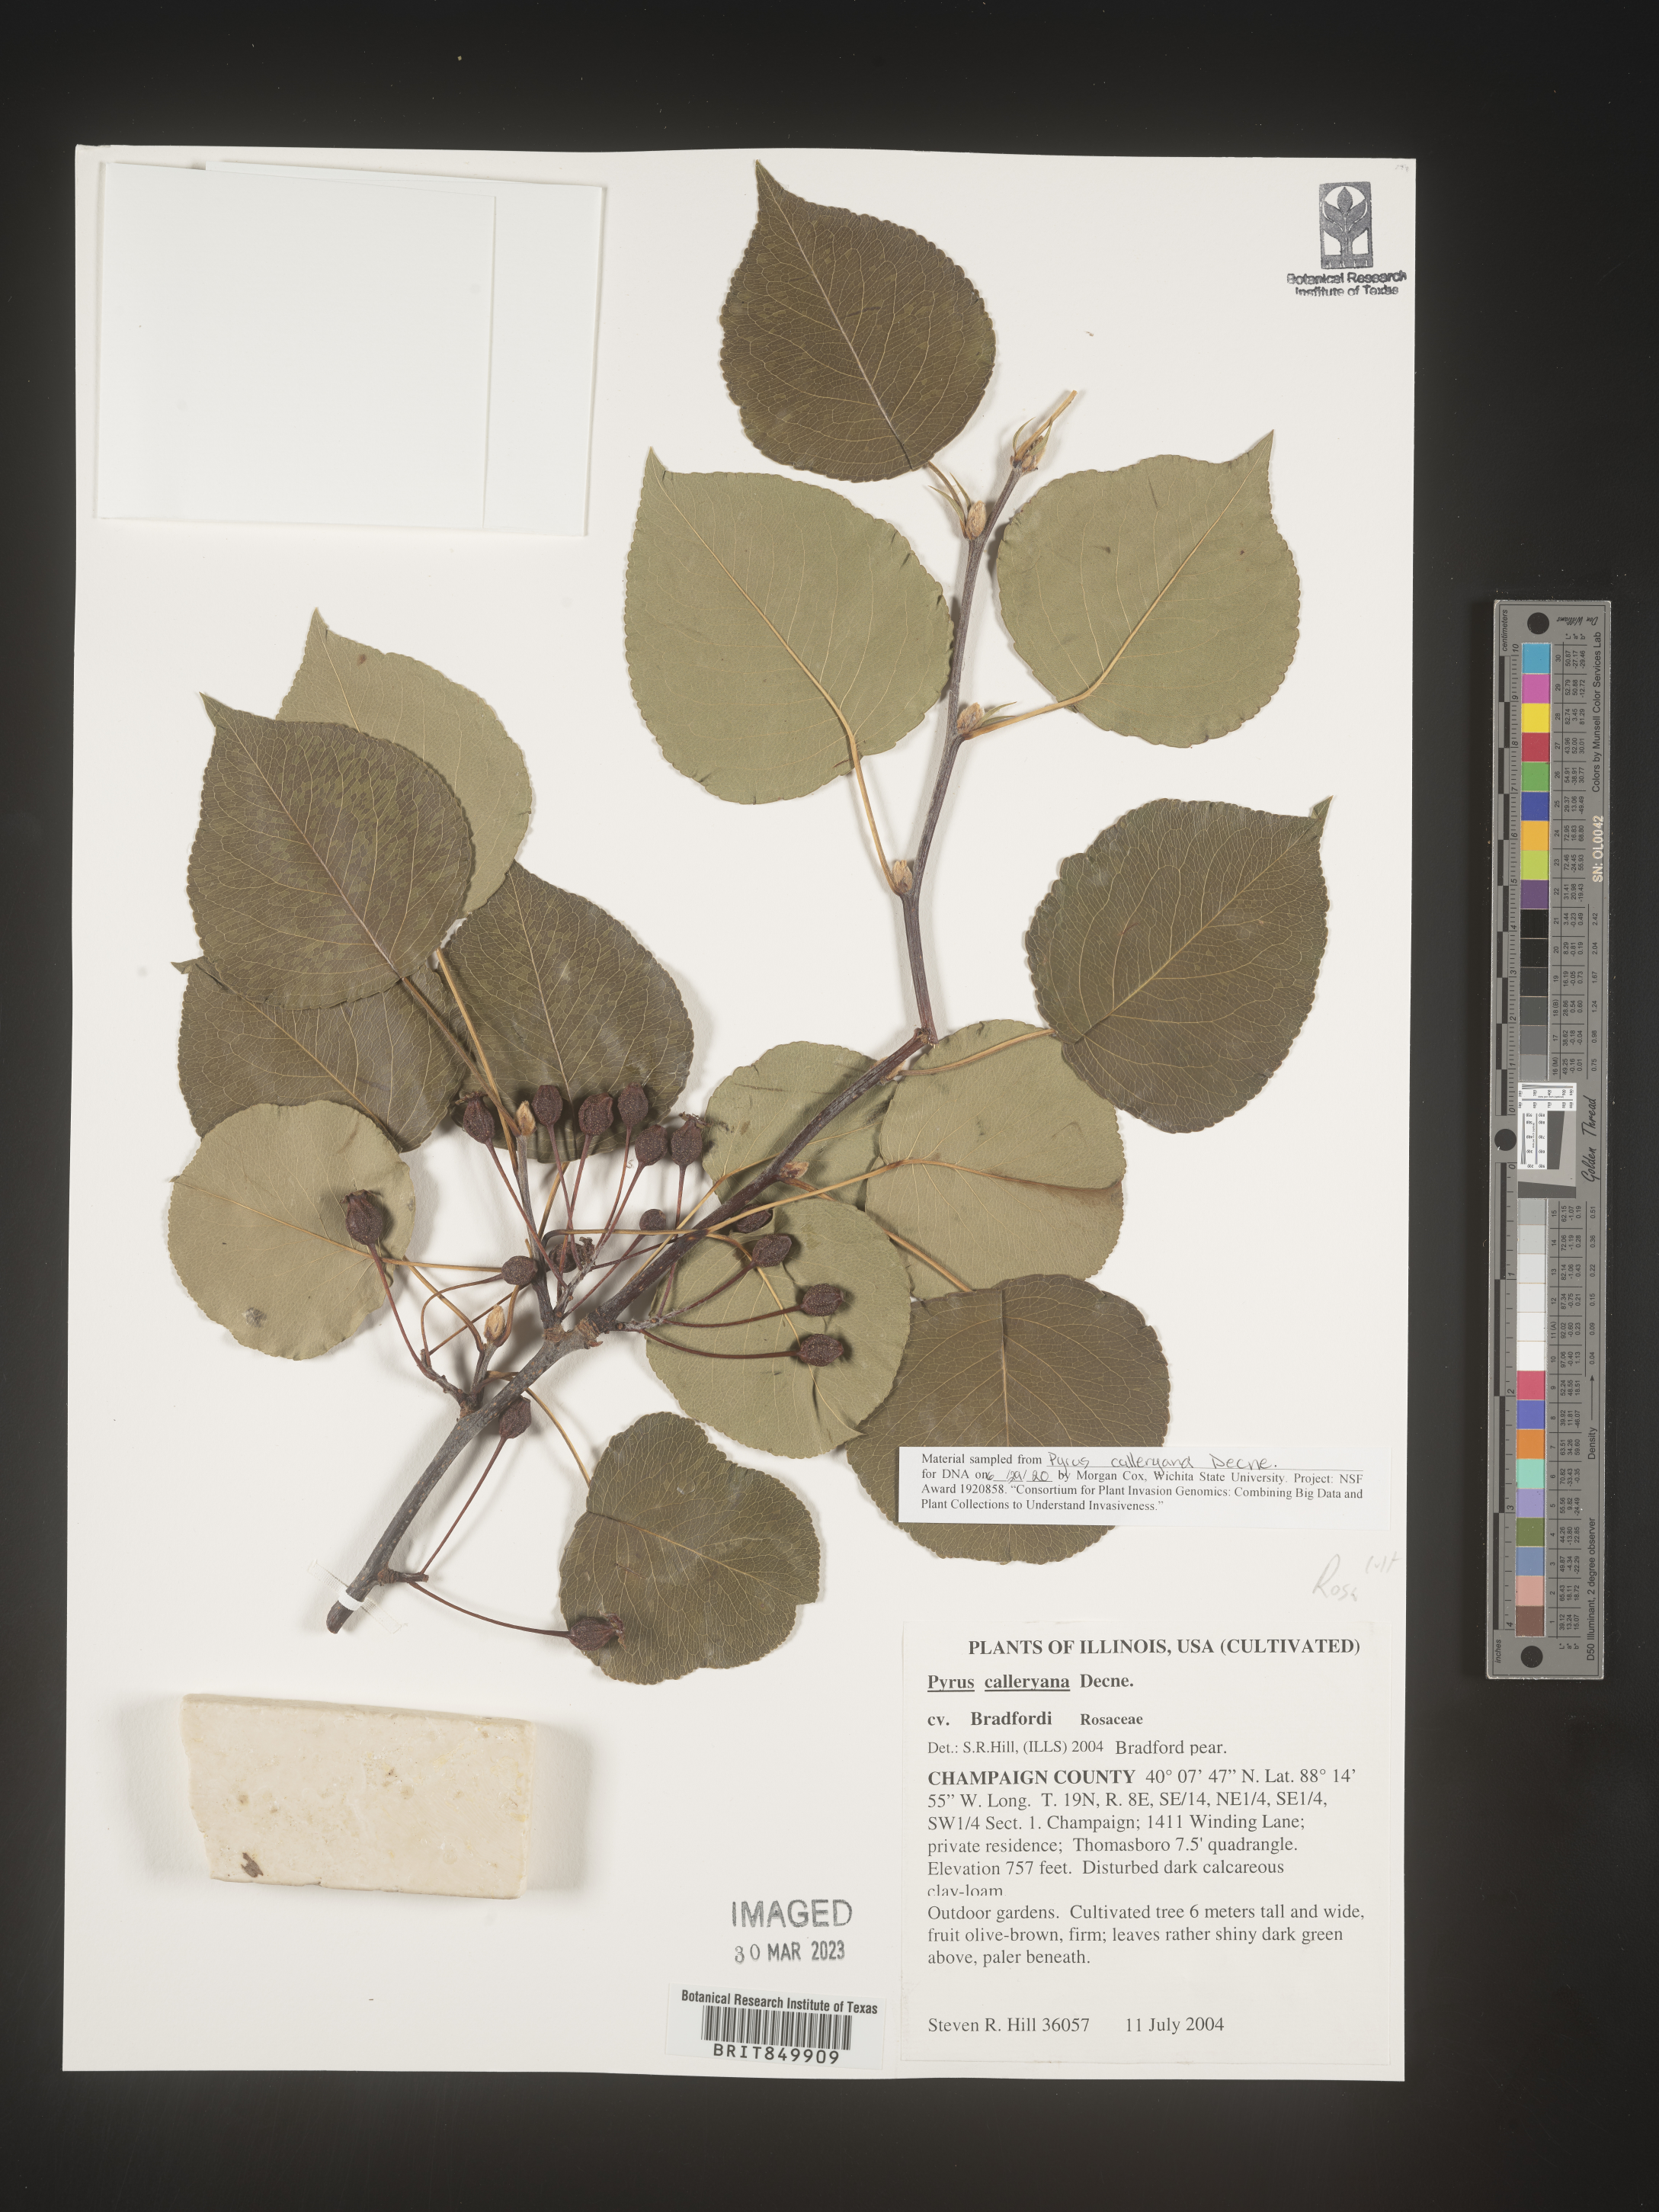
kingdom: Plantae
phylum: Tracheophyta
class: Magnoliopsida
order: Rosales
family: Rosaceae
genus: Pyrus
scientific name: Pyrus
